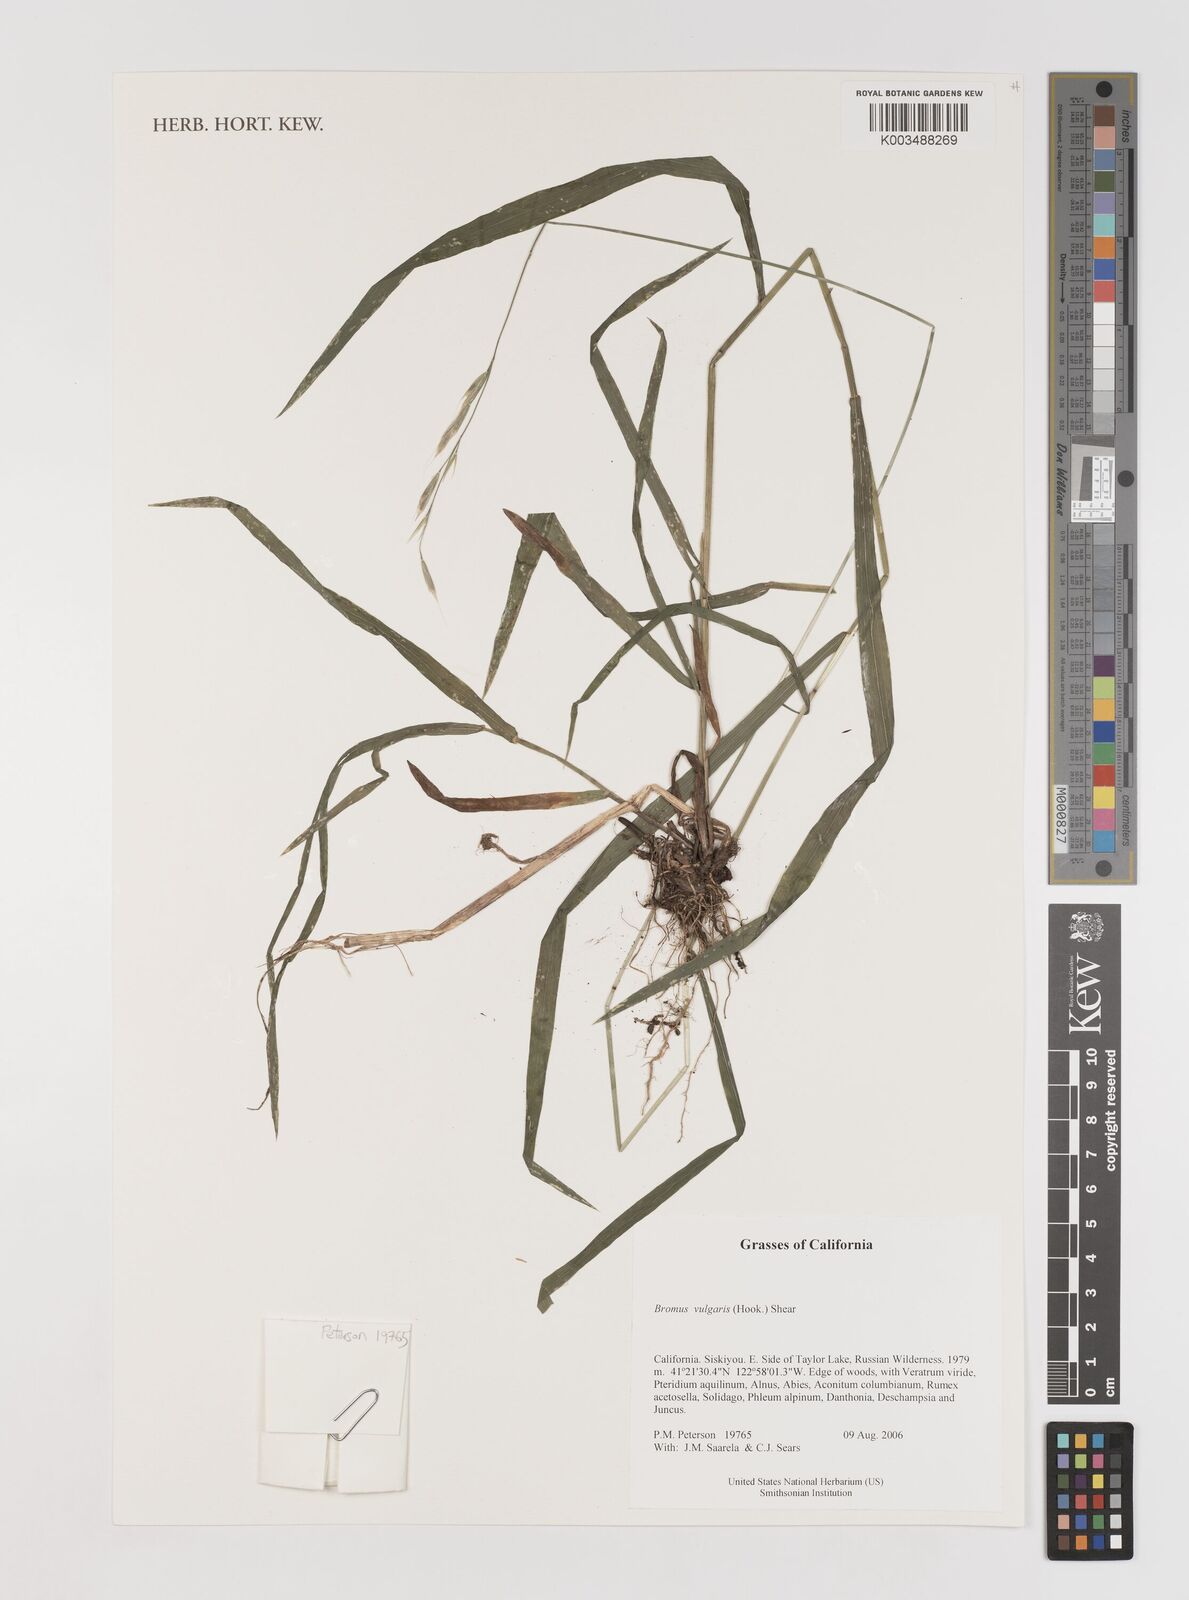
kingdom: Plantae
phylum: Tracheophyta
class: Liliopsida
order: Poales
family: Poaceae
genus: Bromus
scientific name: Bromus vulgaris
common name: Columbia brome
